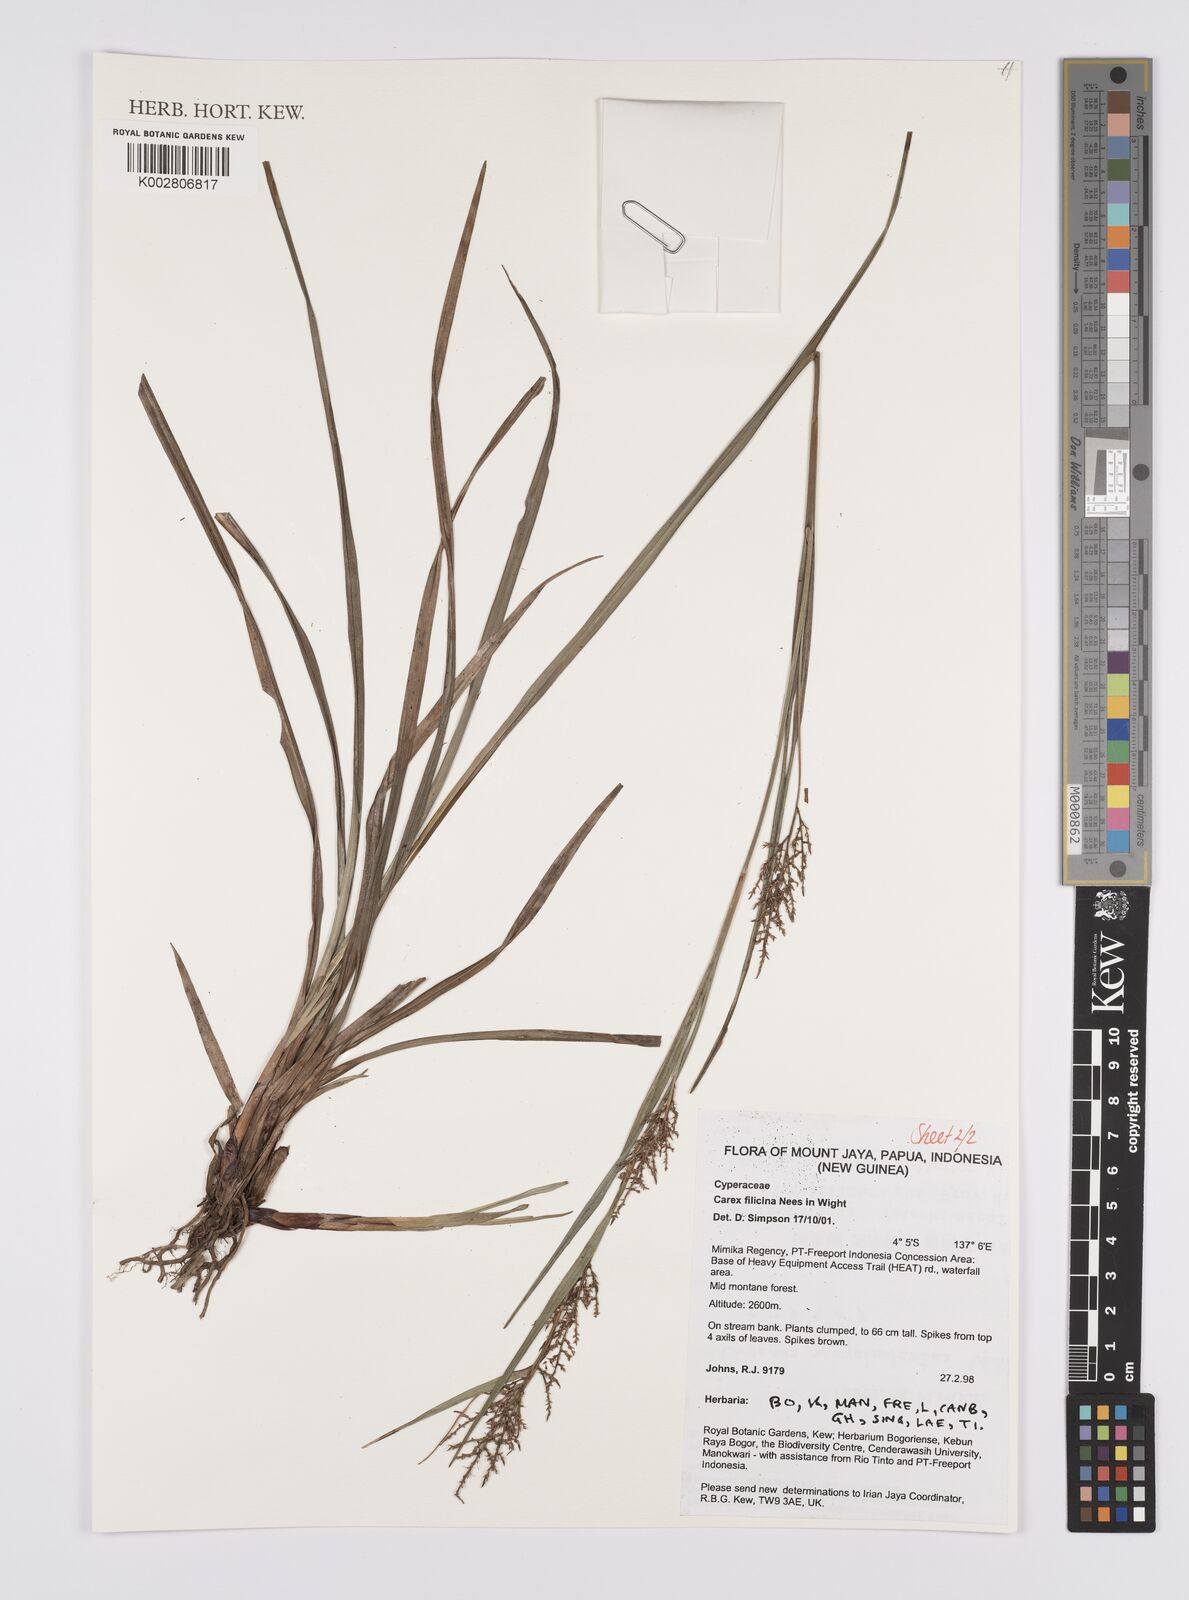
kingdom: Plantae
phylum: Tracheophyta
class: Liliopsida
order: Poales
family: Cyperaceae
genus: Carex
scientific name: Carex filicina
